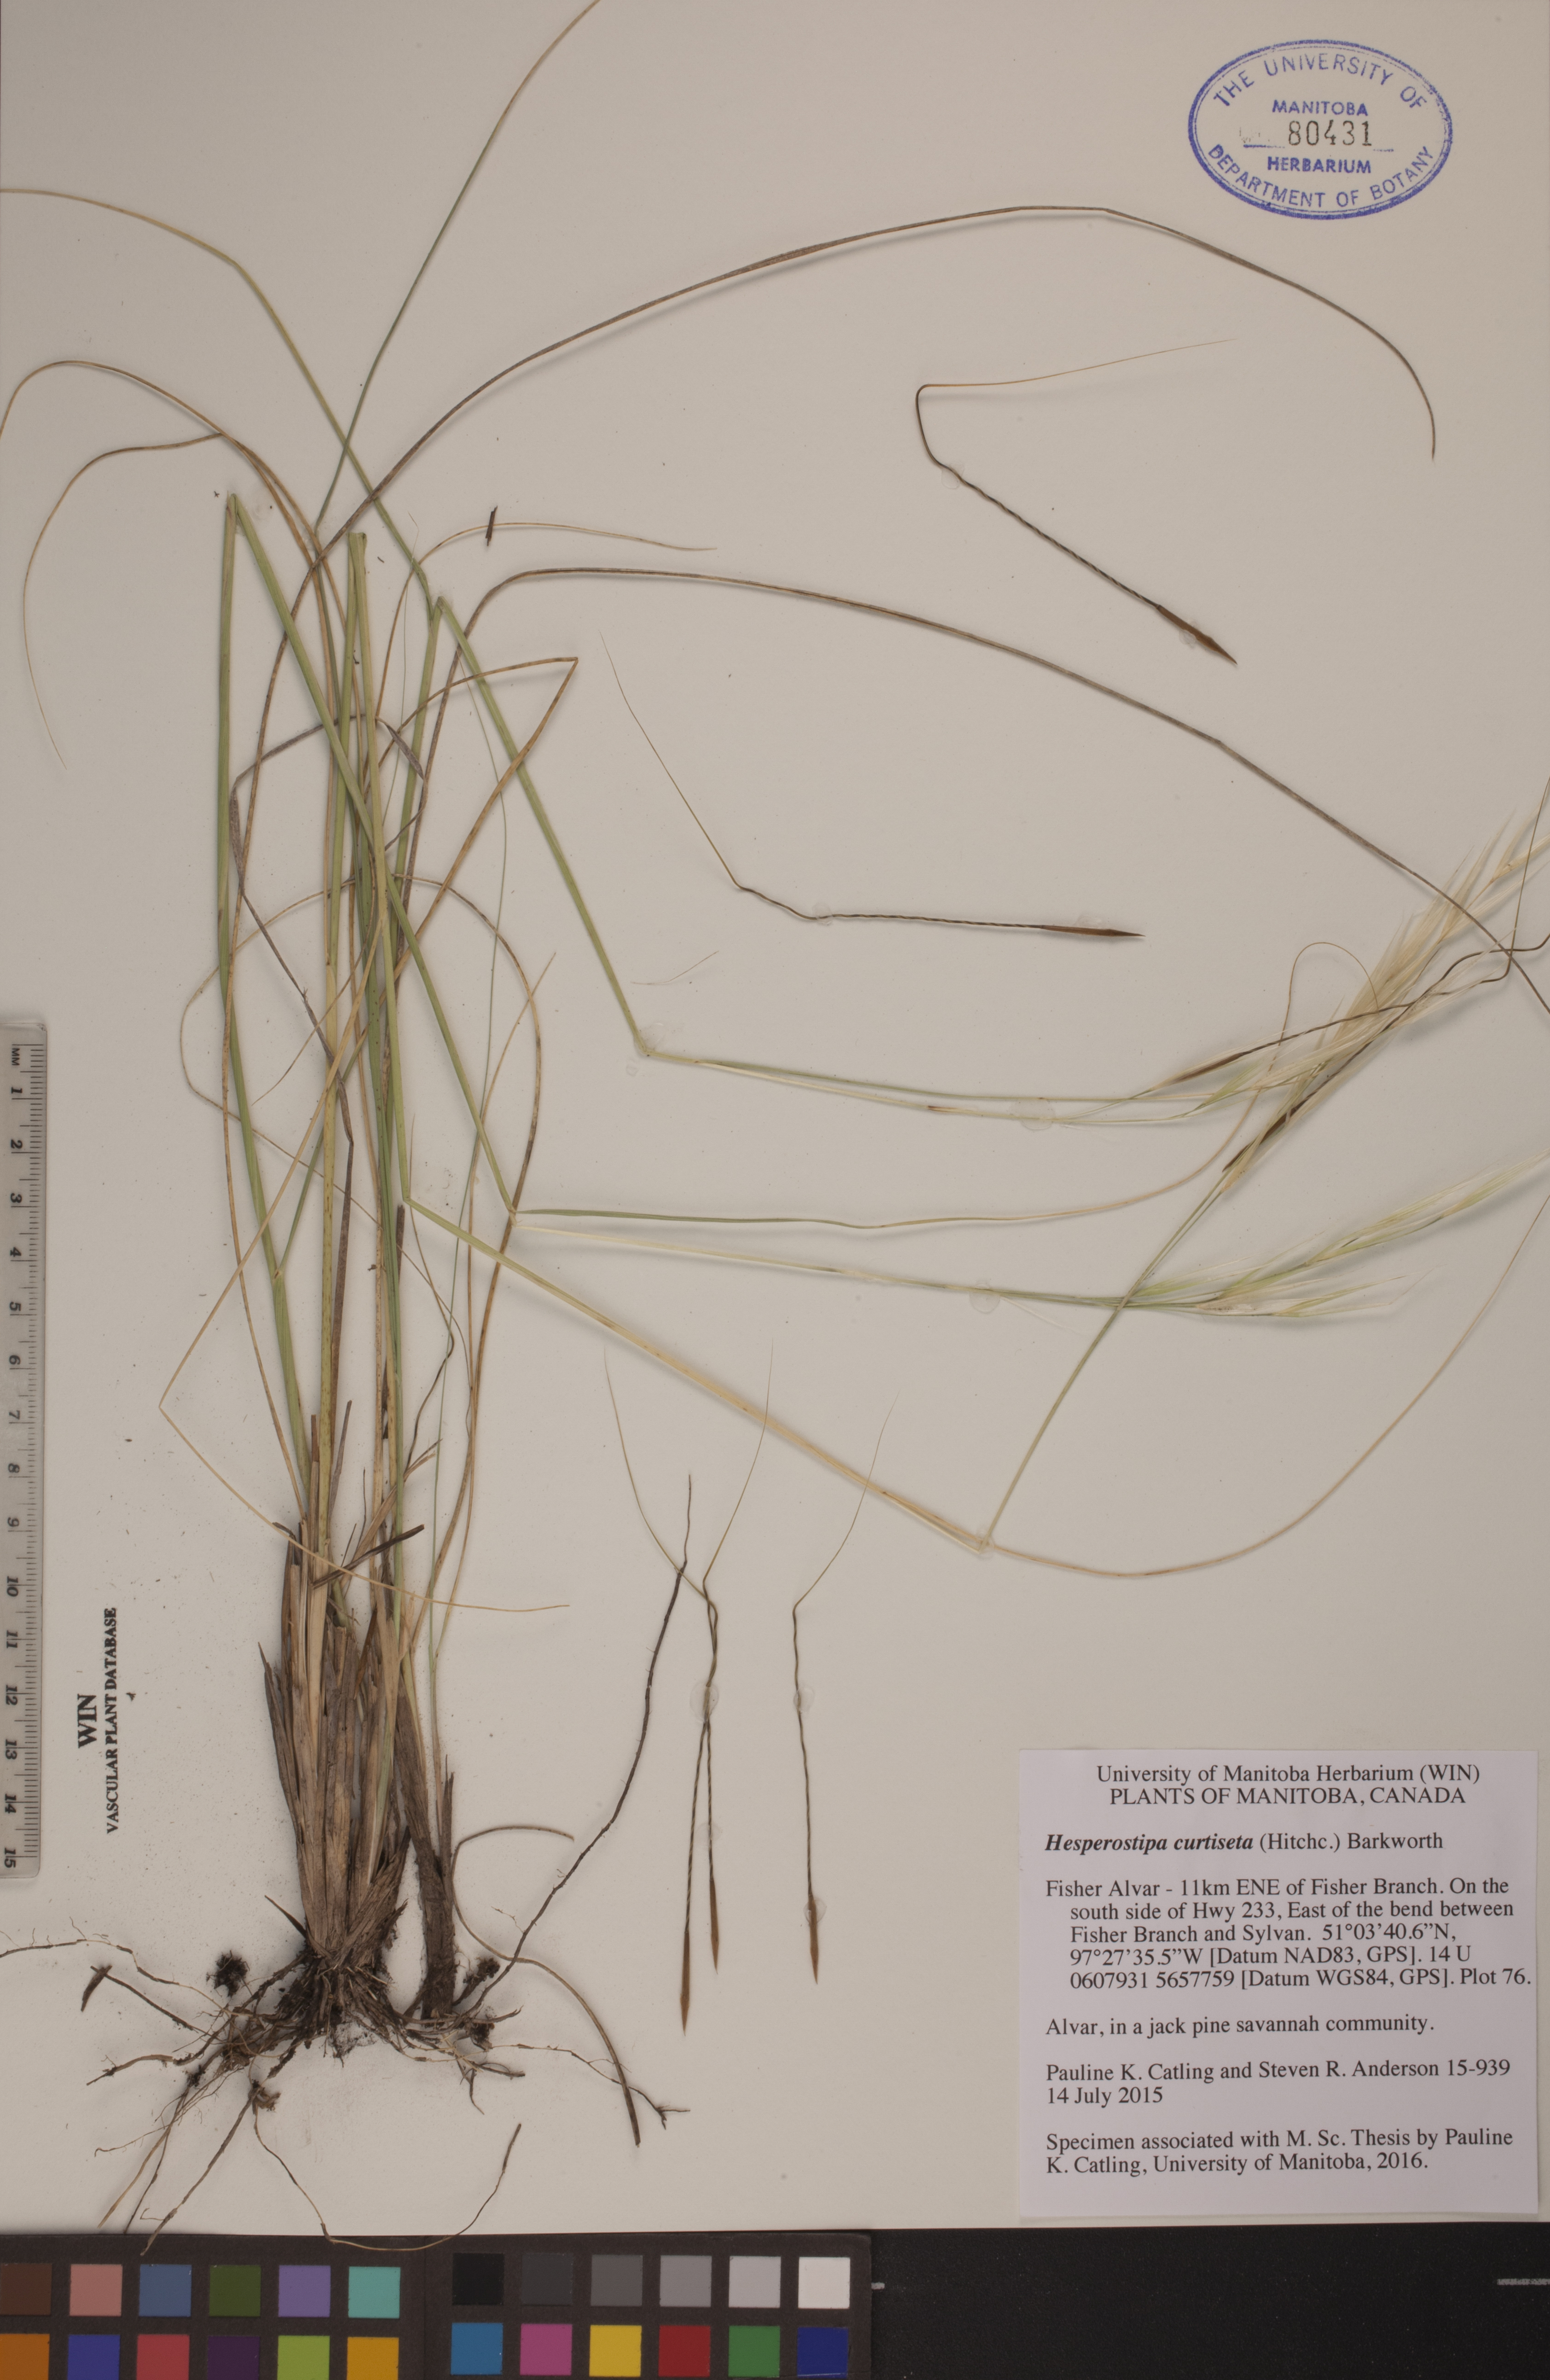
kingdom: Plantae
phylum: Tracheophyta
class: Liliopsida
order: Poales
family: Poaceae
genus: Hesperostipa
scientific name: Hesperostipa curtiseta
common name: Canada needle-and-thread grass
